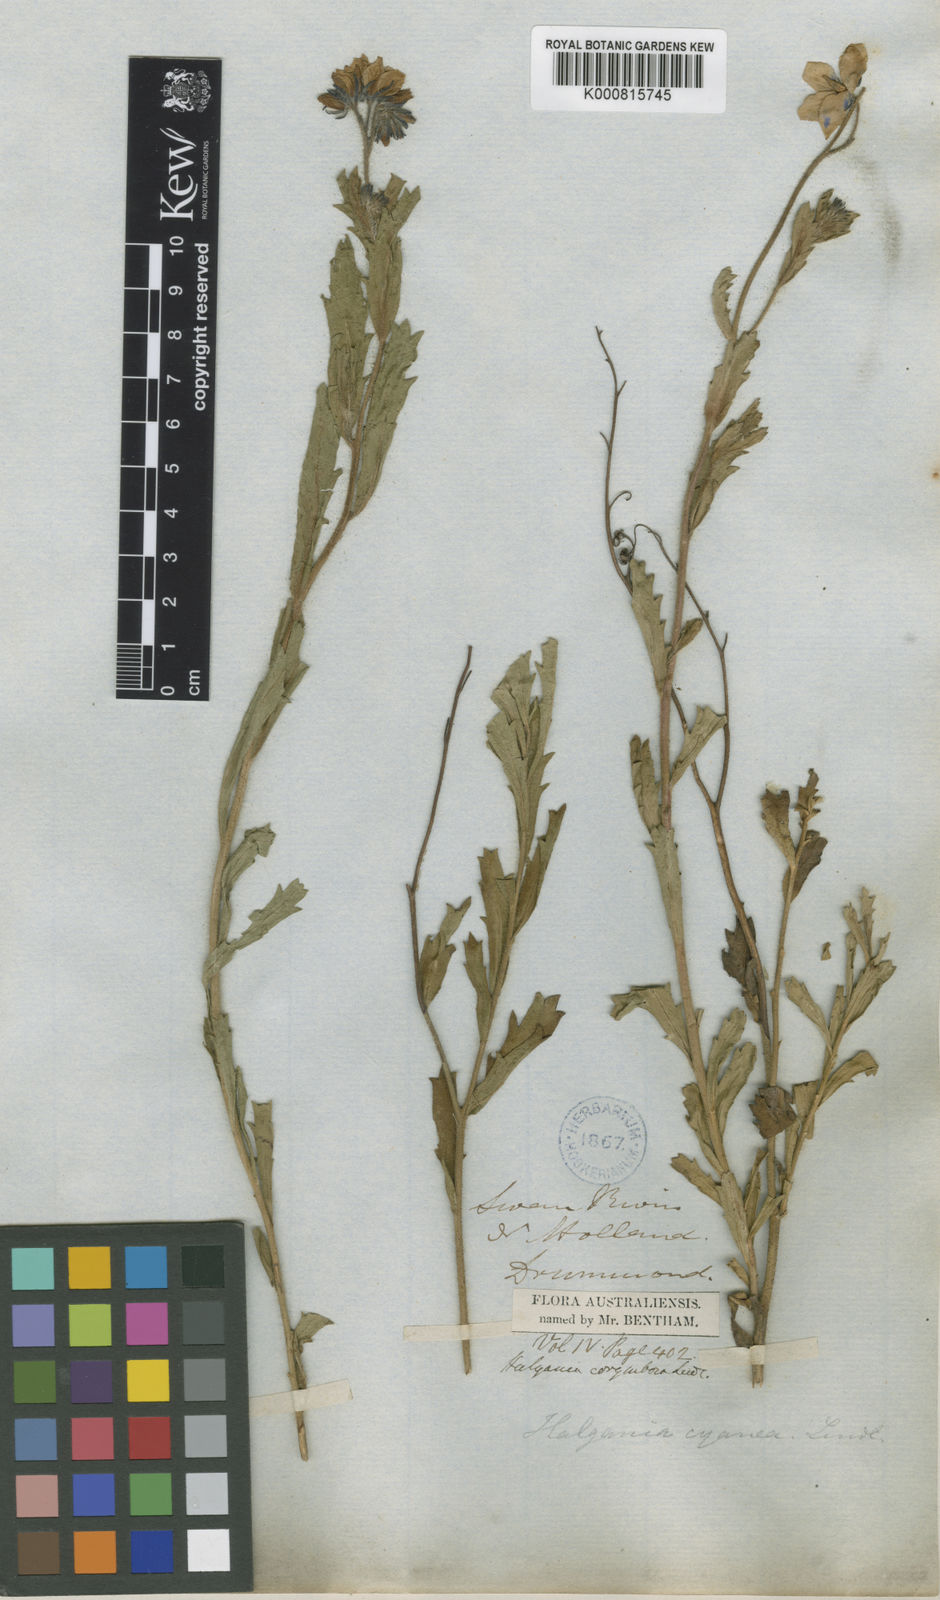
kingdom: Plantae
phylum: Tracheophyta
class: Magnoliopsida
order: Boraginales
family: Ehretiaceae
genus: Halgania
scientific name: Halgania corymbosa
